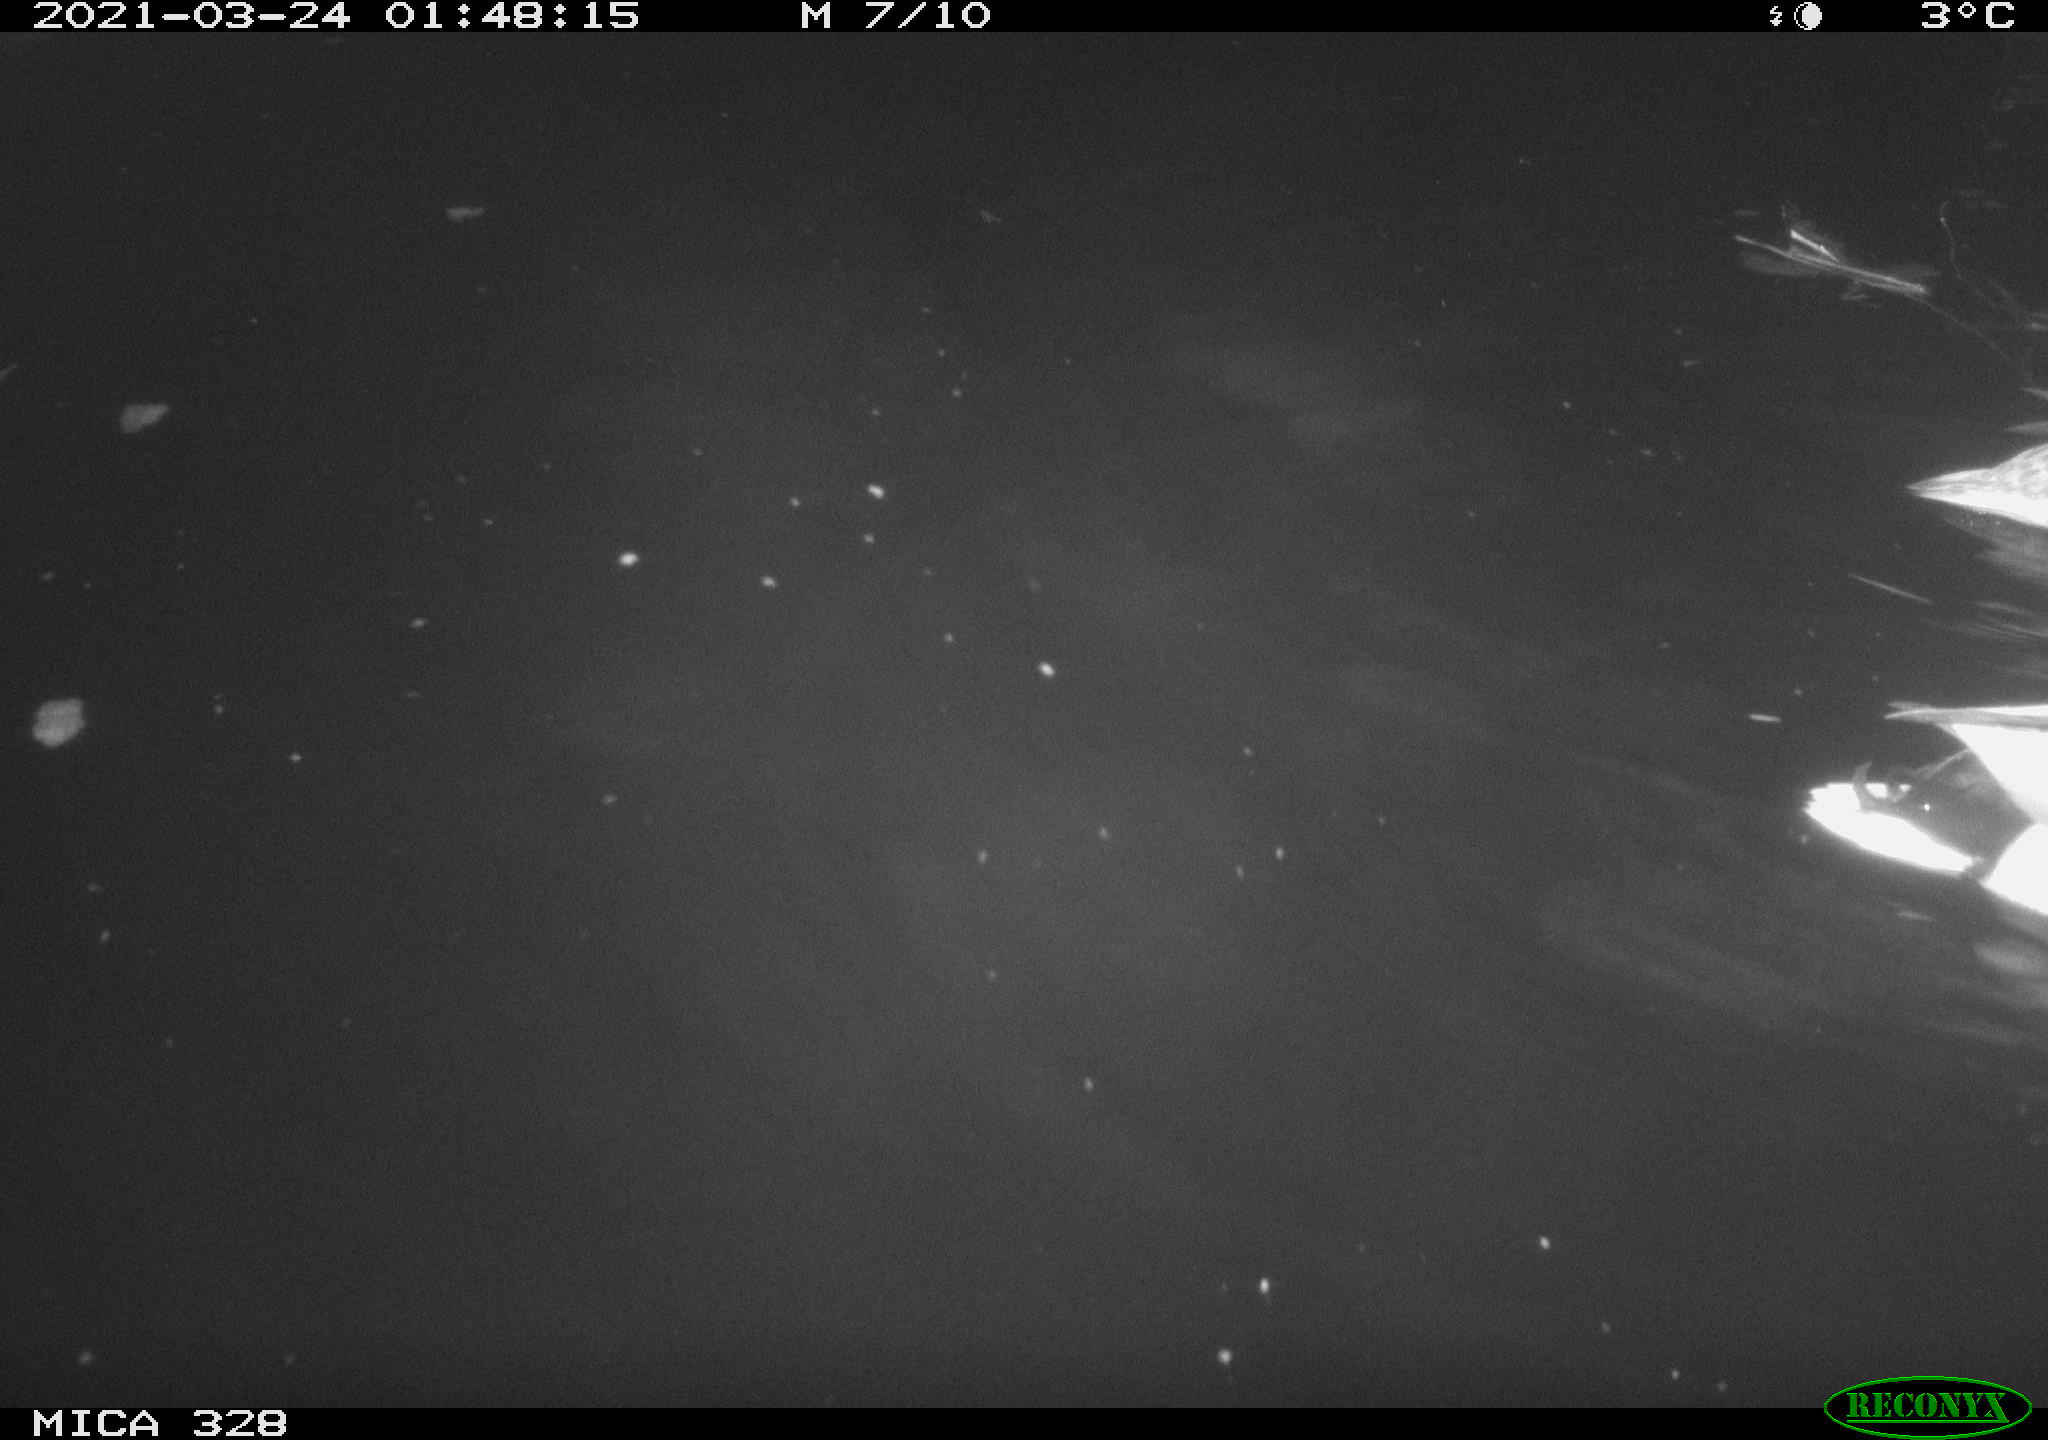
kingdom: Animalia
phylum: Chordata
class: Aves
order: Anseriformes
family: Anatidae
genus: Anas
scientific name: Anas platyrhynchos
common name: Mallard
